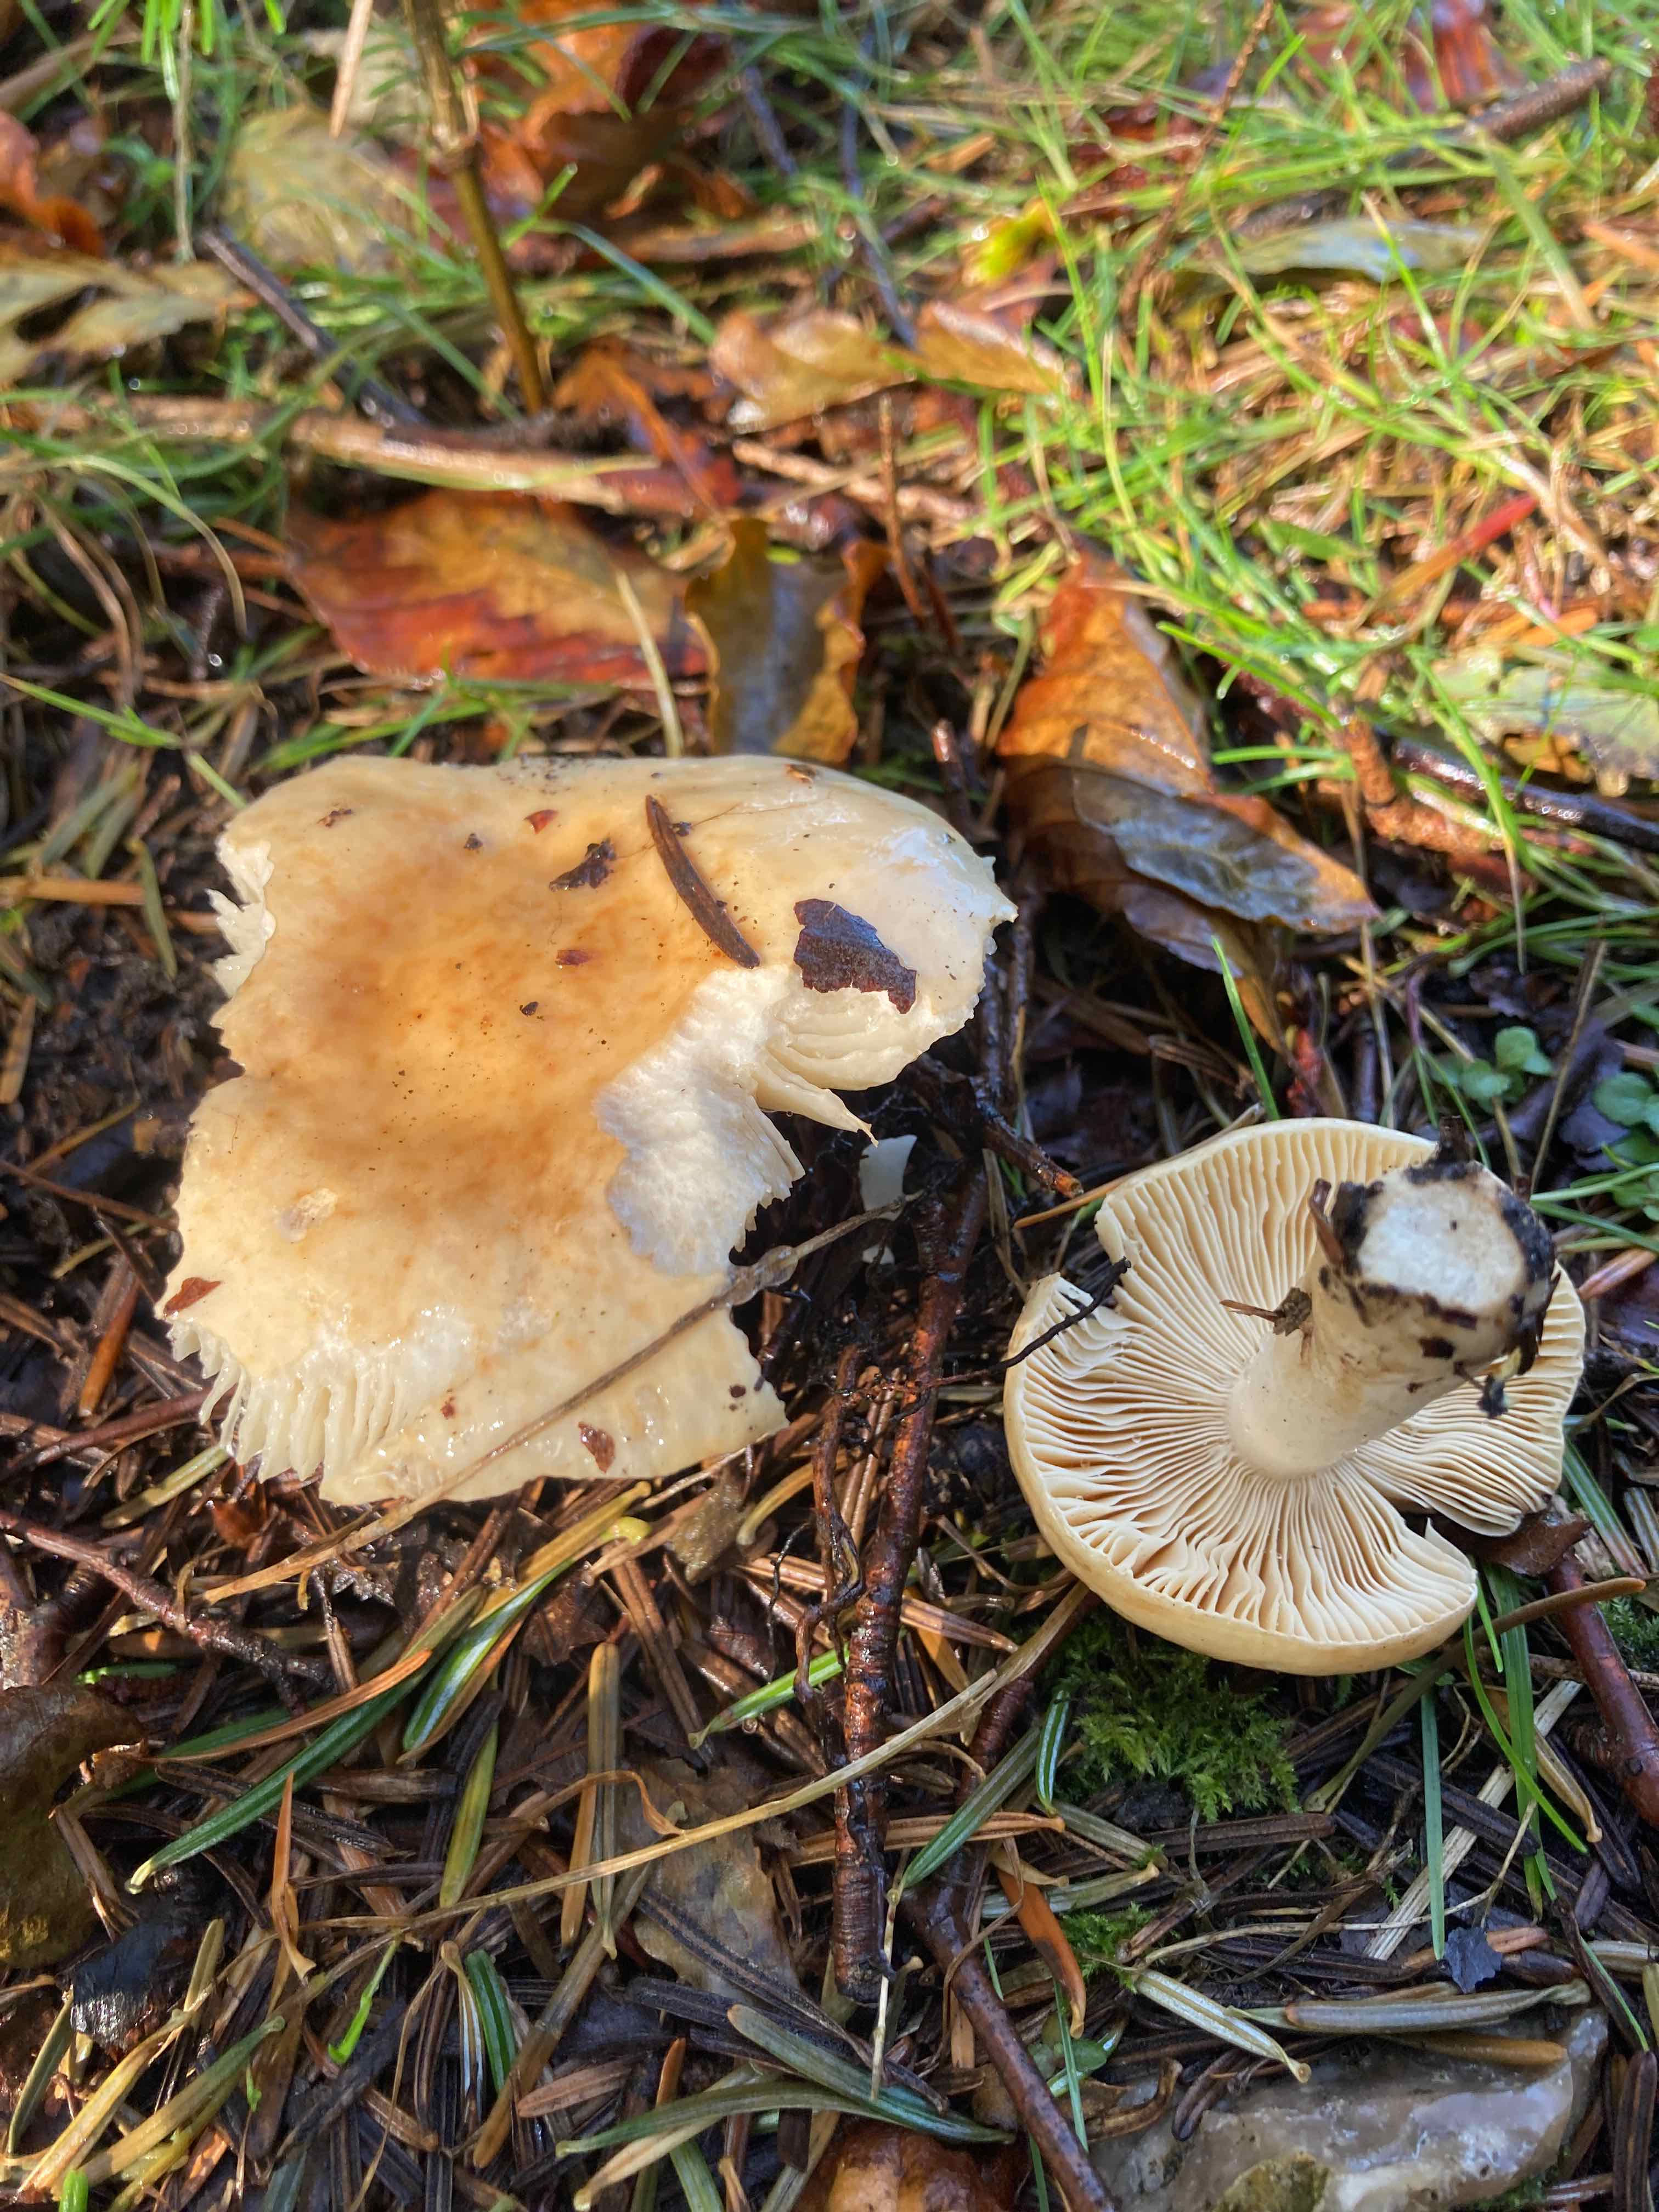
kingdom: Fungi
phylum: Basidiomycota
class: Agaricomycetes
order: Russulales
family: Russulaceae
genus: Russula
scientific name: Russula fellea
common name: galde-skørhat
